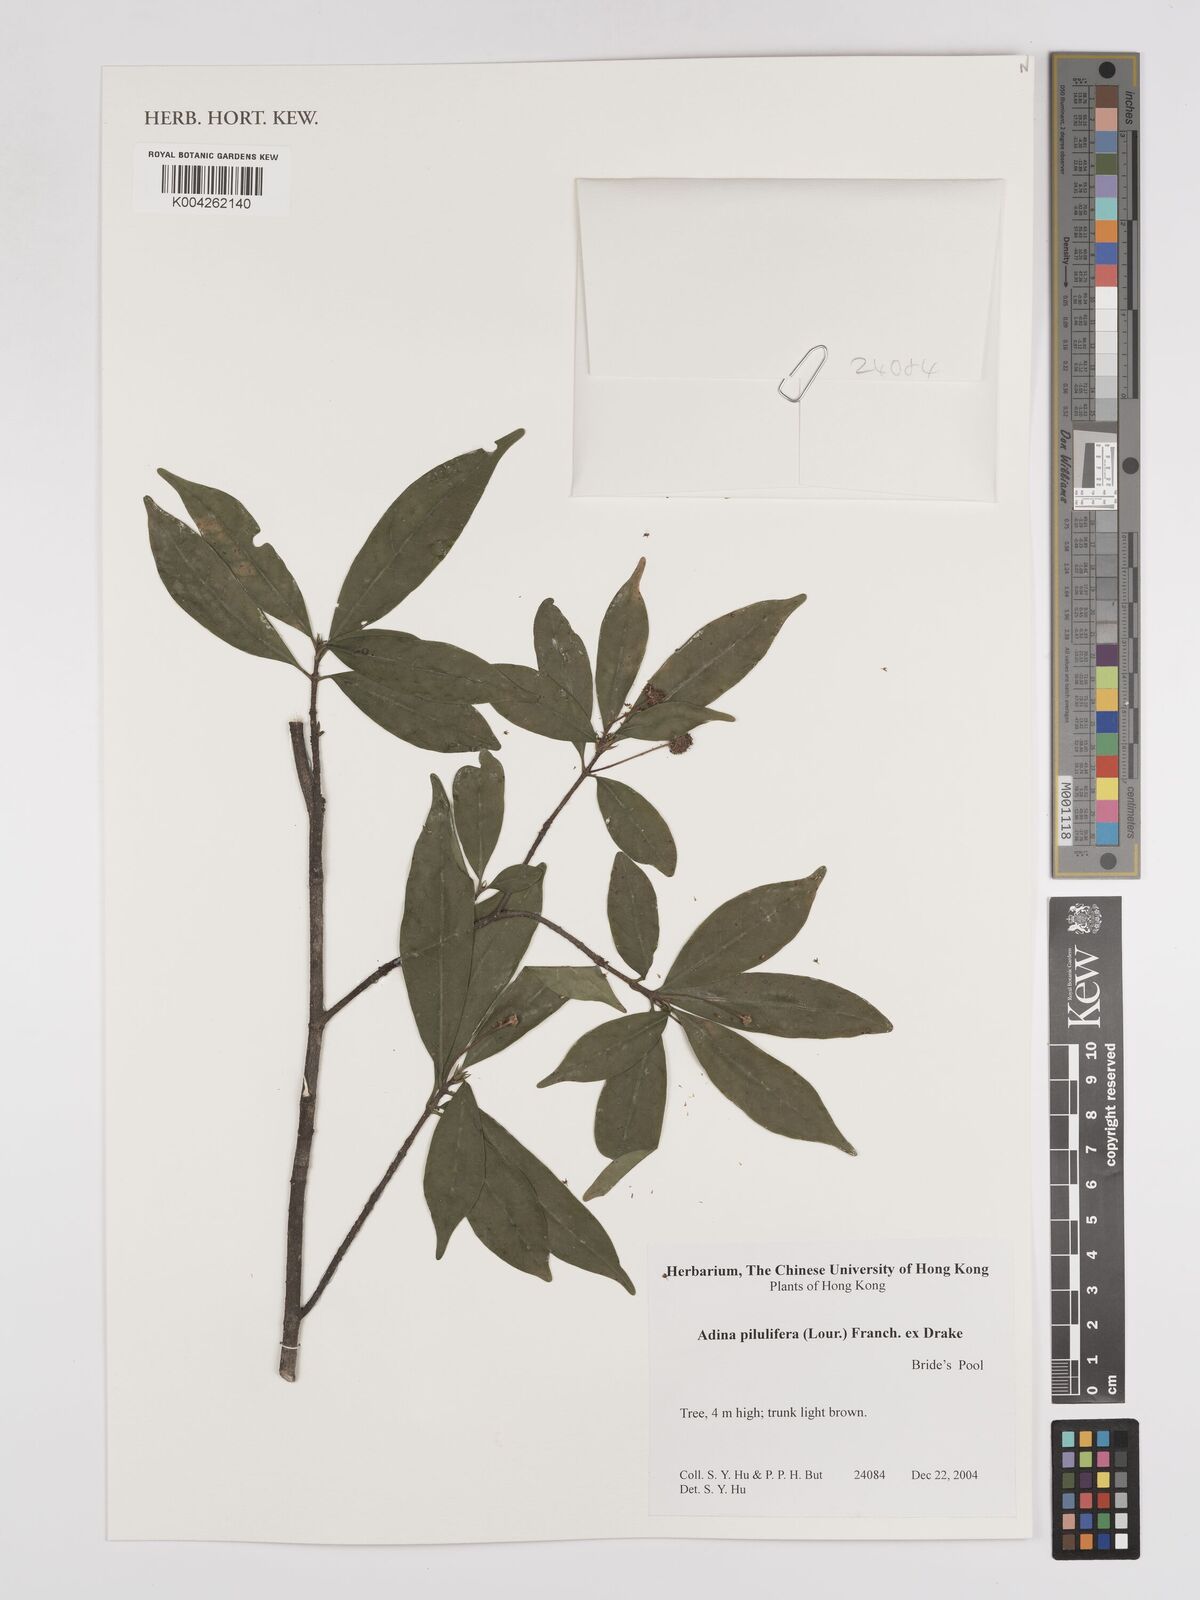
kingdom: Plantae
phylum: Tracheophyta
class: Magnoliopsida
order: Gentianales
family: Rubiaceae
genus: Adina
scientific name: Adina pilulifera
